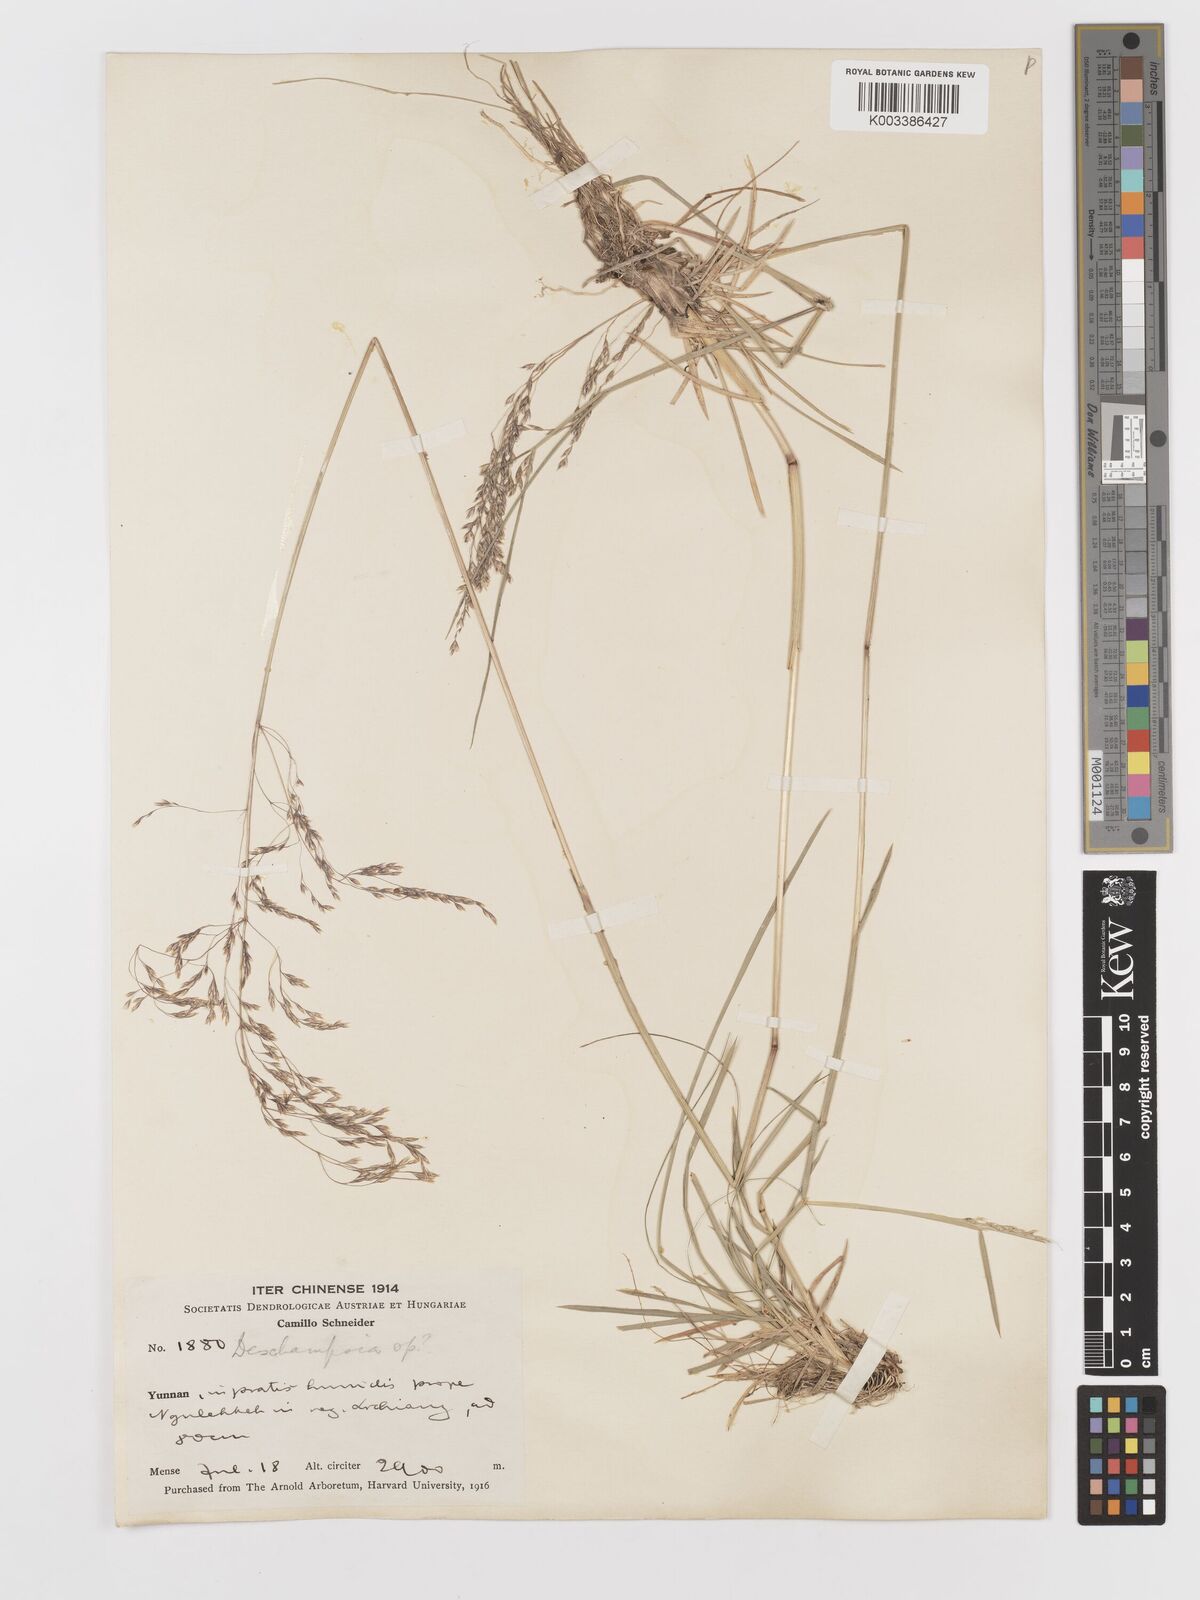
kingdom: Plantae
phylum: Tracheophyta
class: Liliopsida
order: Poales
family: Poaceae
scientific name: Poaceae
